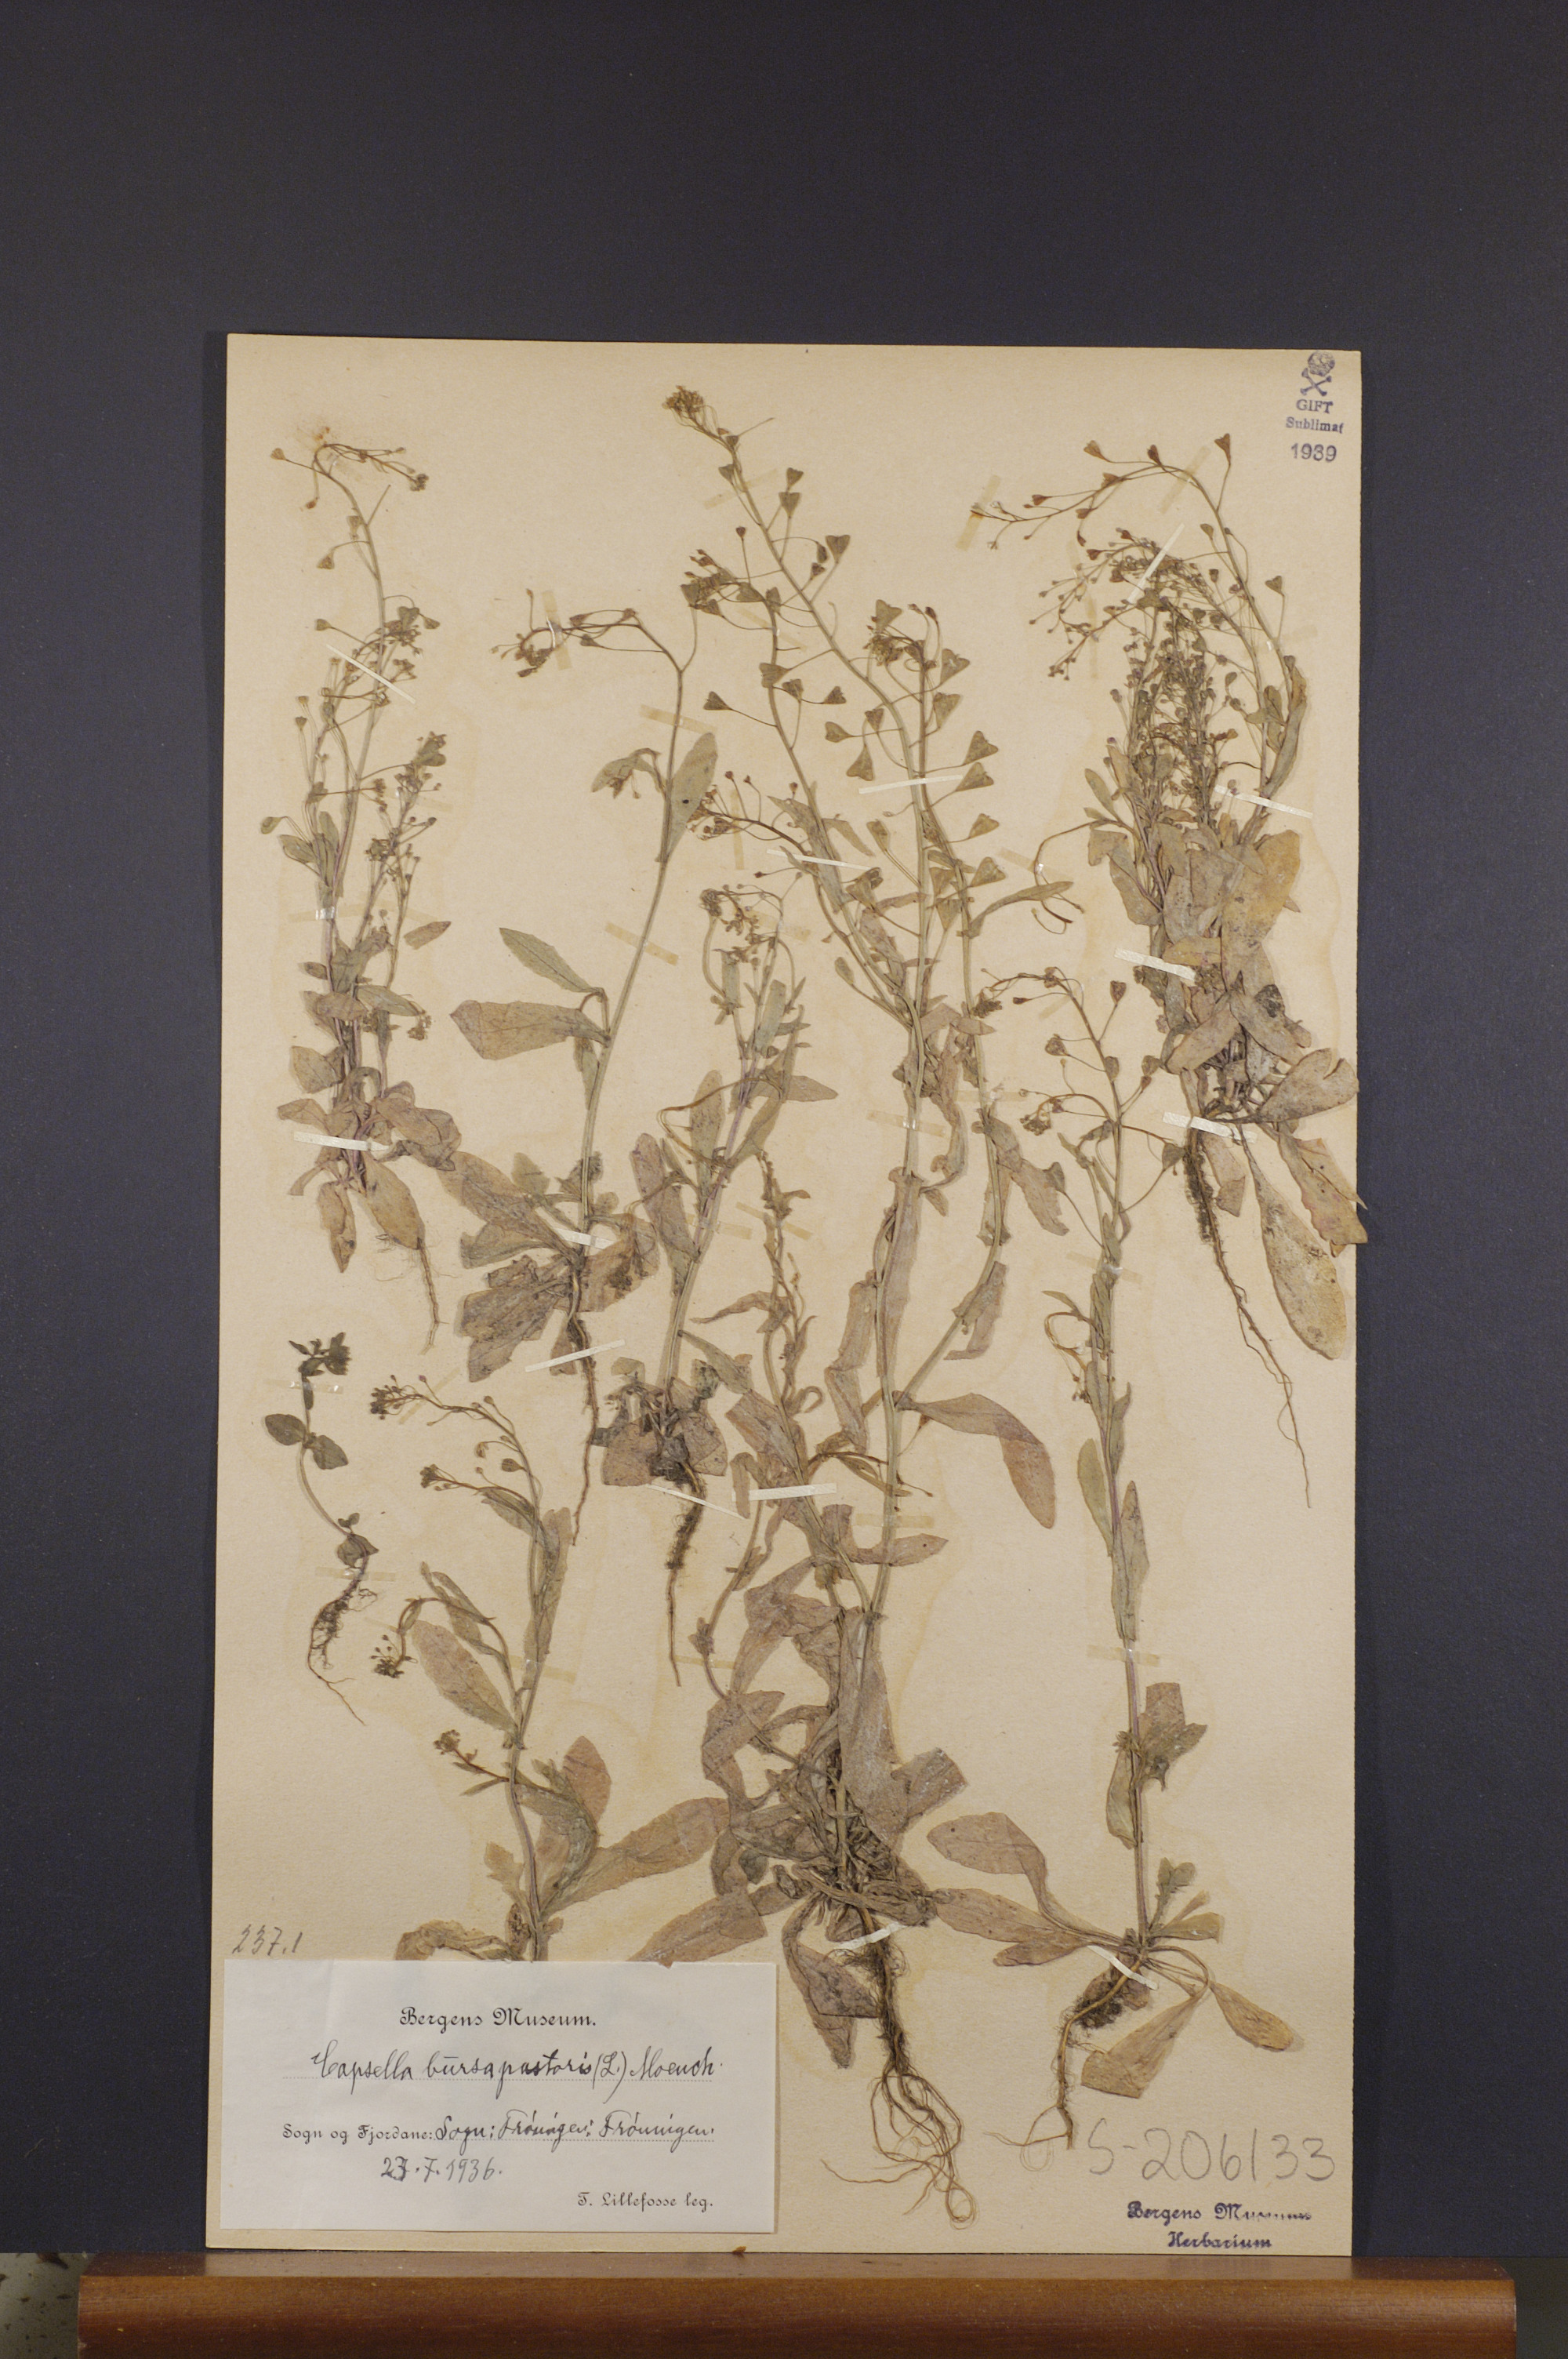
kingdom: Plantae
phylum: Tracheophyta
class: Magnoliopsida
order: Brassicales
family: Brassicaceae
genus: Capsella
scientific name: Capsella bursa-pastoris
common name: Shepherd's purse
